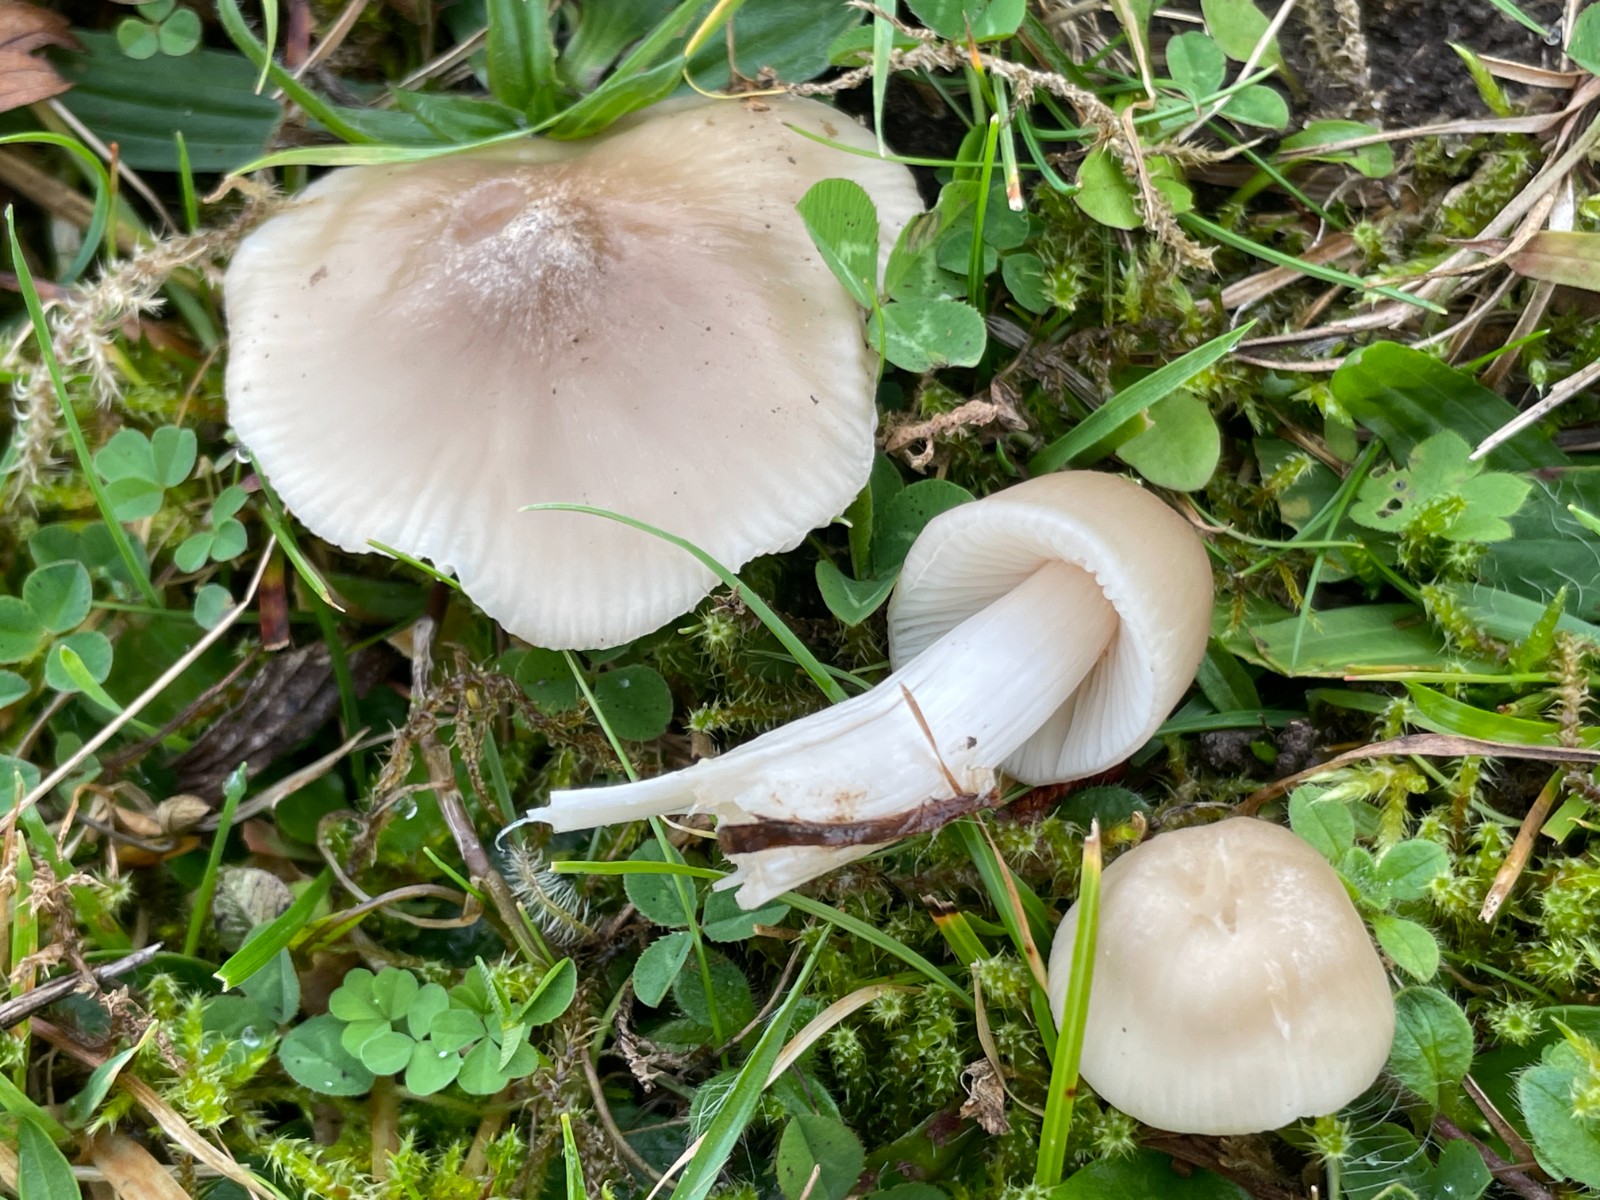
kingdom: Fungi
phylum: Basidiomycota
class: Agaricomycetes
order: Agaricales
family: Hygrophoraceae
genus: Cuphophyllus
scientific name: Cuphophyllus fornicatus
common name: gråbrun vokshat
